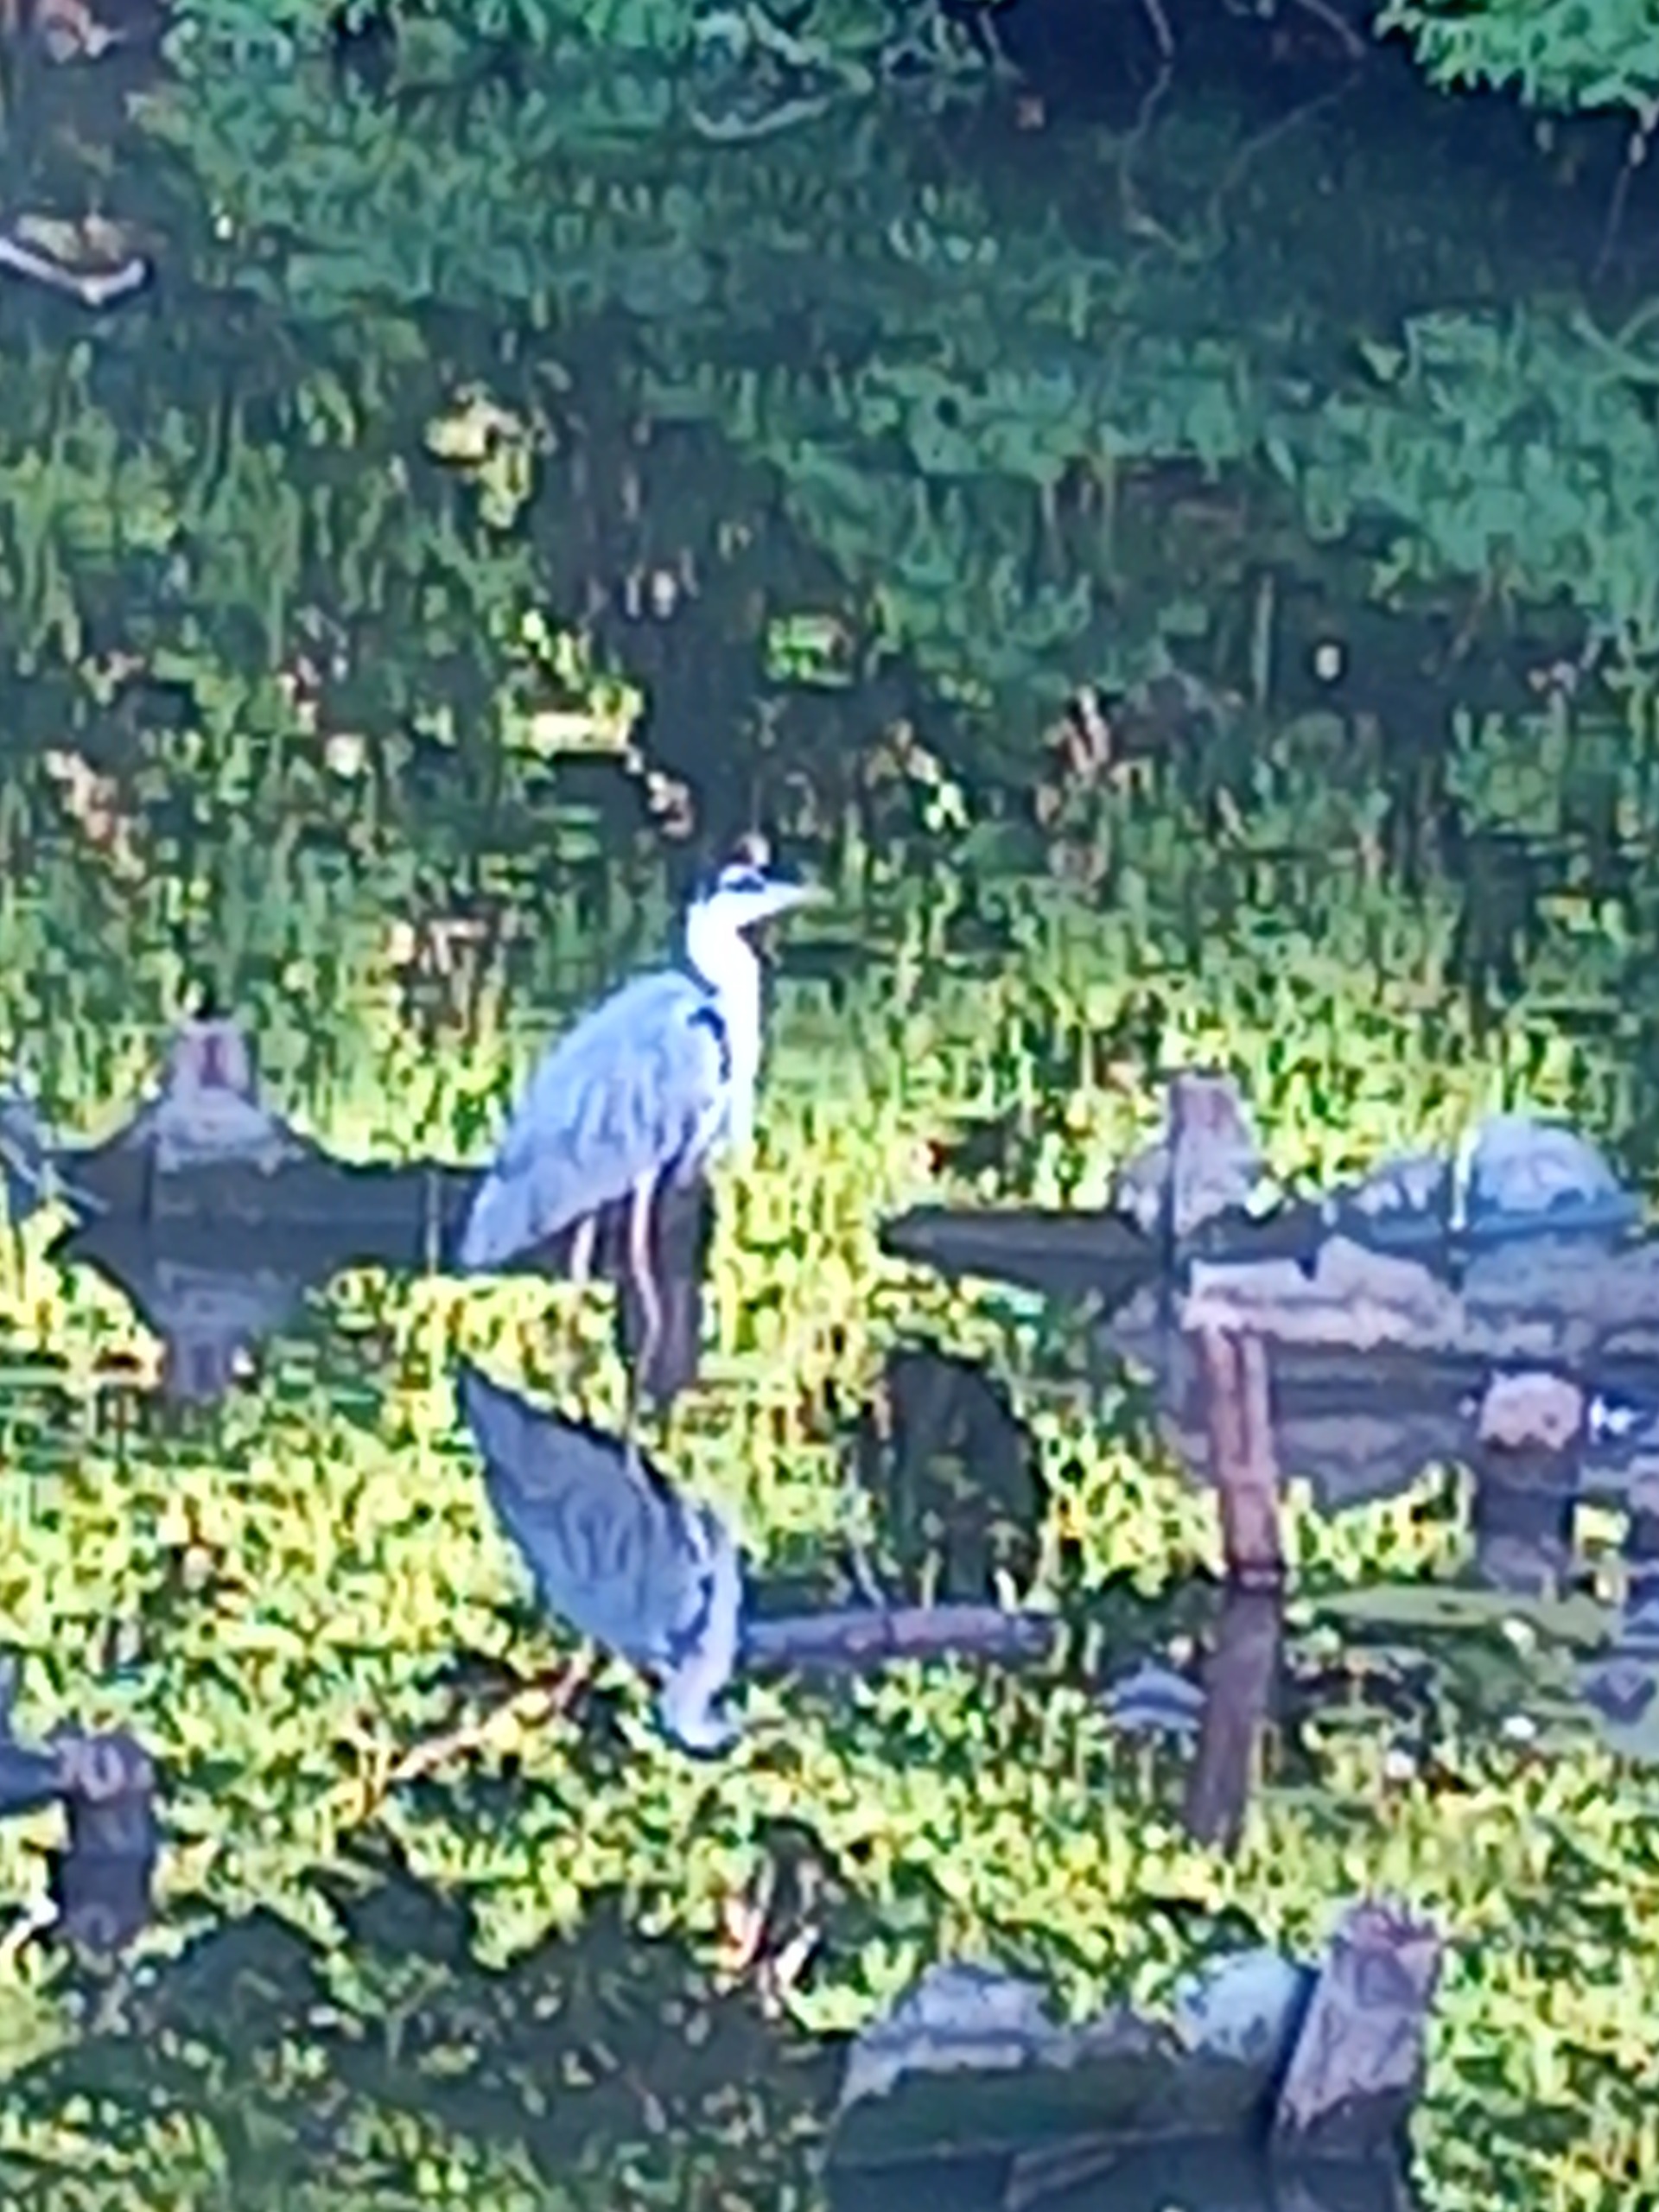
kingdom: Animalia
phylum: Chordata
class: Aves
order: Pelecaniformes
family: Ardeidae
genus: Ardea
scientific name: Ardea cinerea
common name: Fiskehejre
